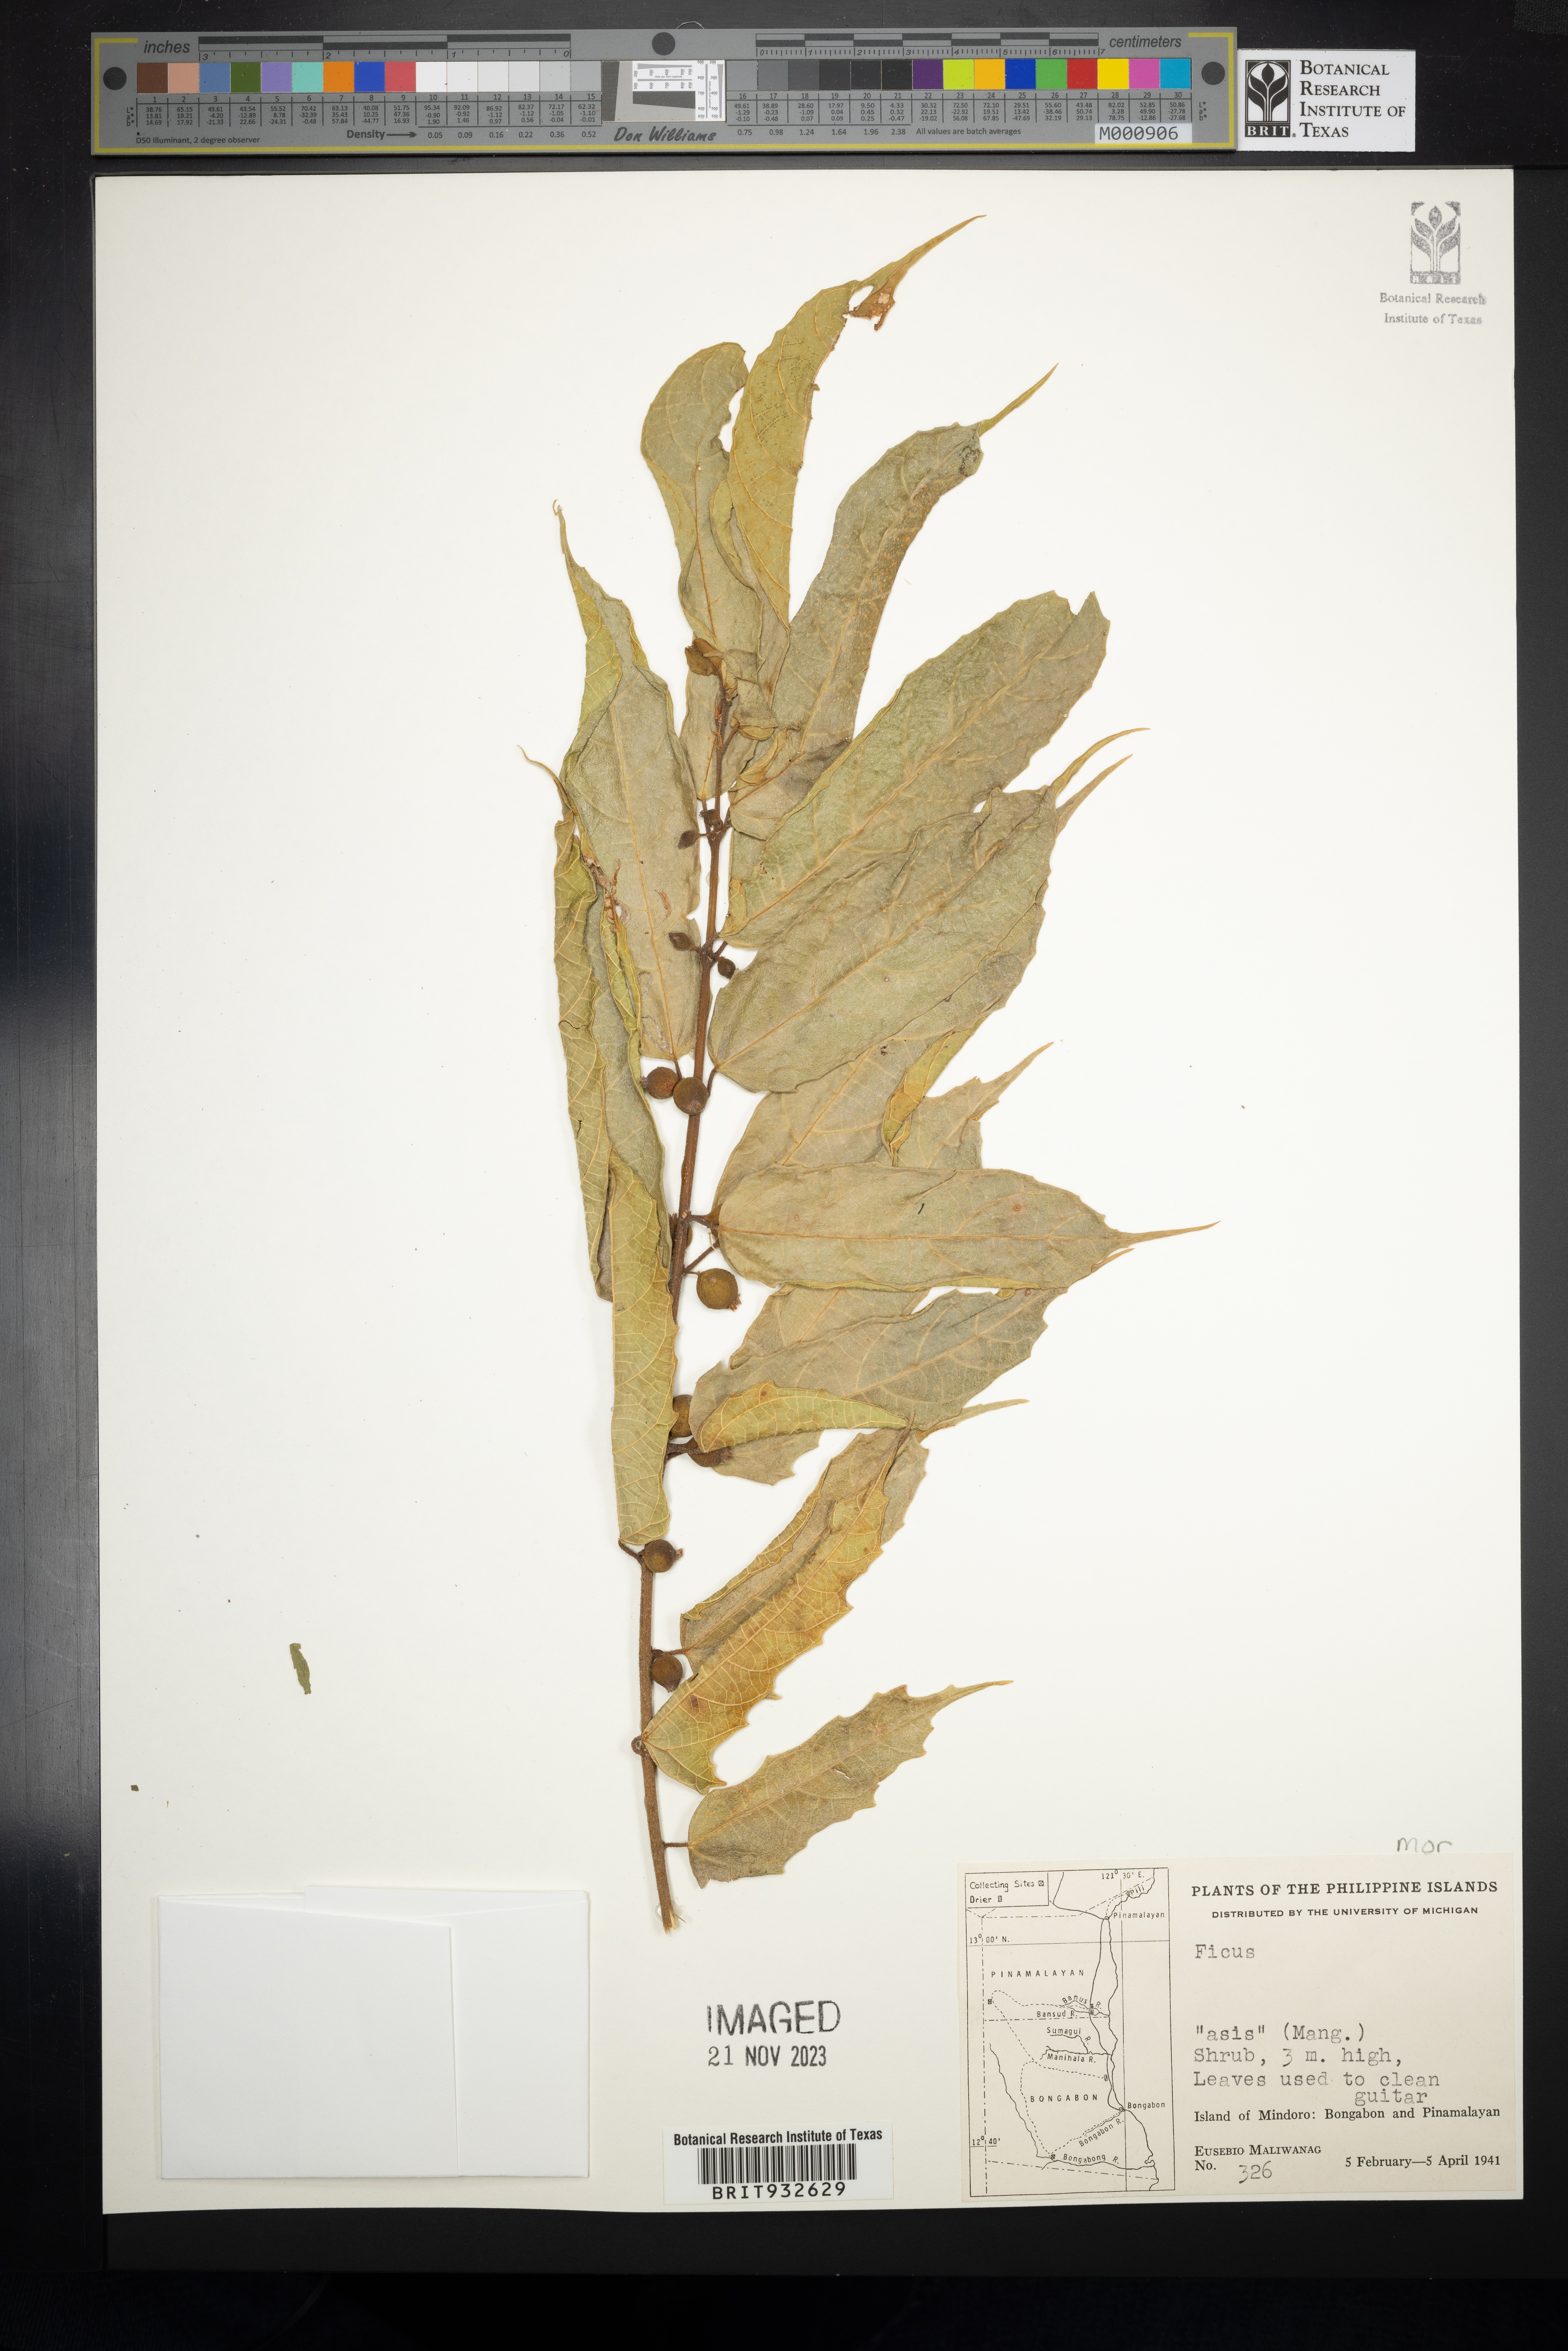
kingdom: Plantae
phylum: Tracheophyta
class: Magnoliopsida
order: Rosales
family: Moraceae
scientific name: Moraceae
